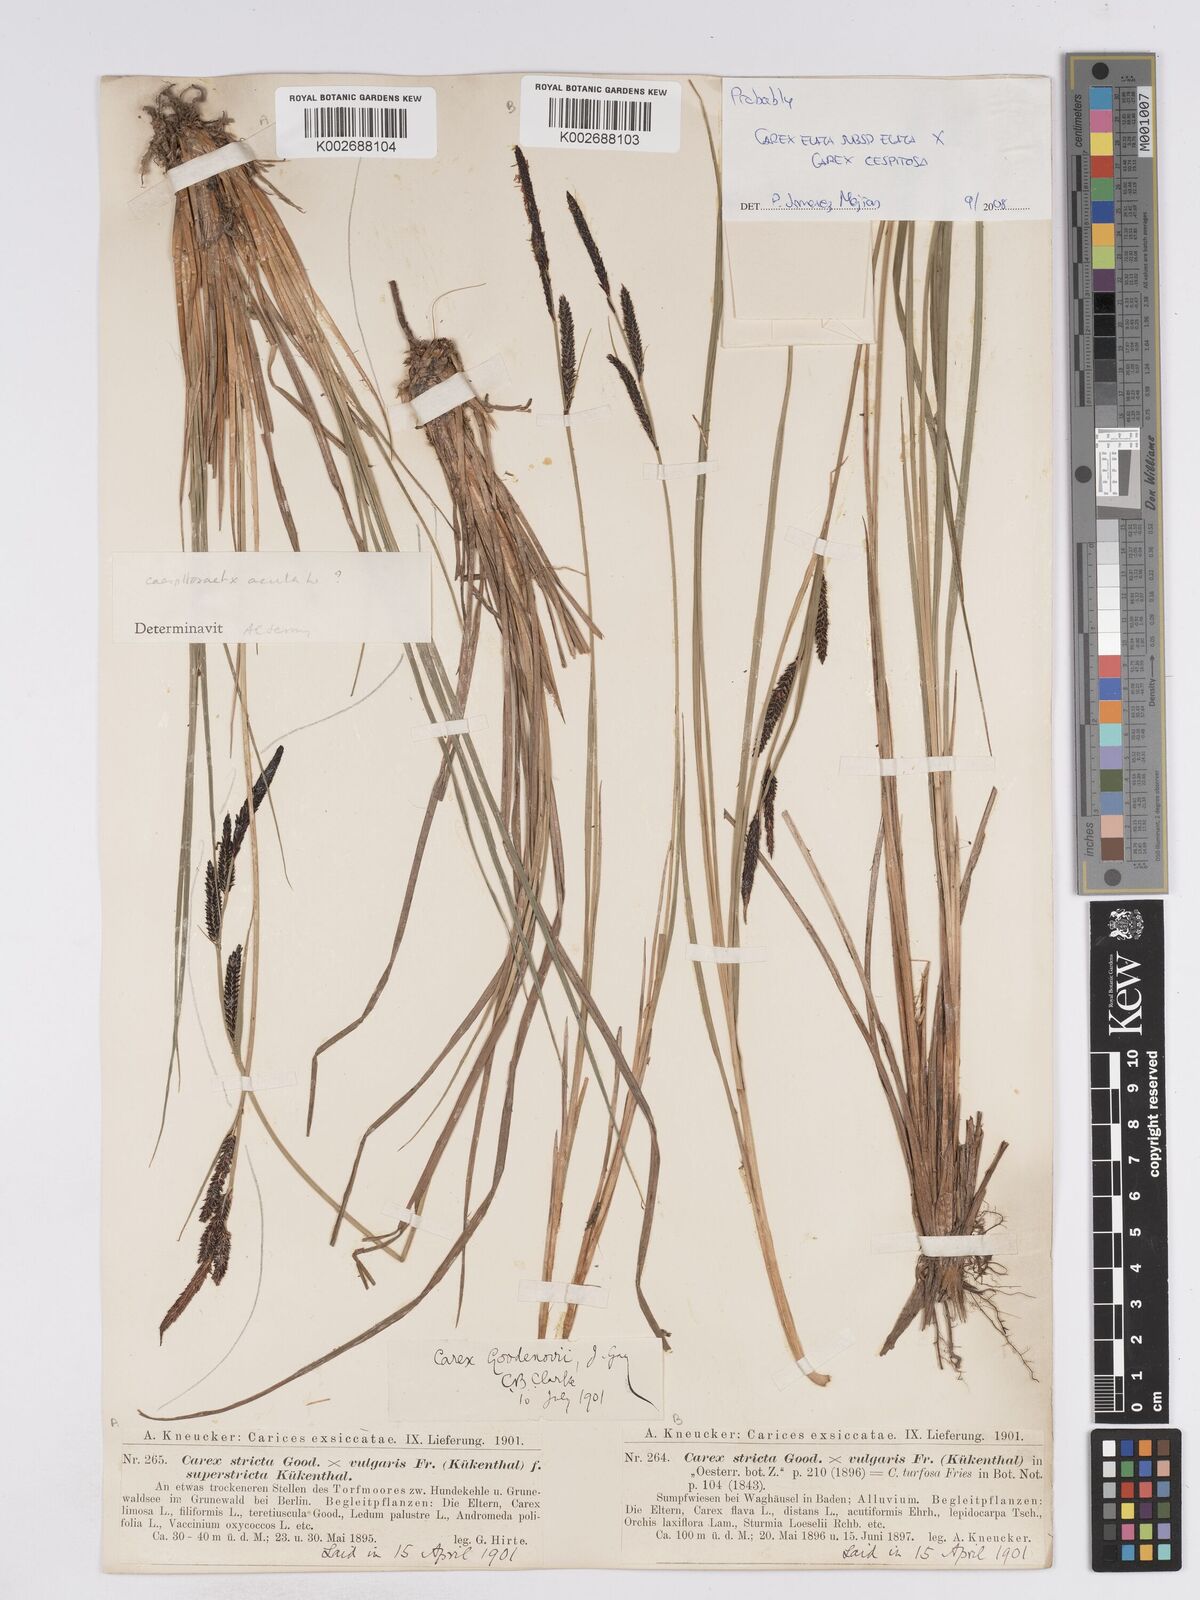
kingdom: Plantae
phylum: Tracheophyta
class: Liliopsida
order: Poales
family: Cyperaceae
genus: Carex
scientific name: Carex
